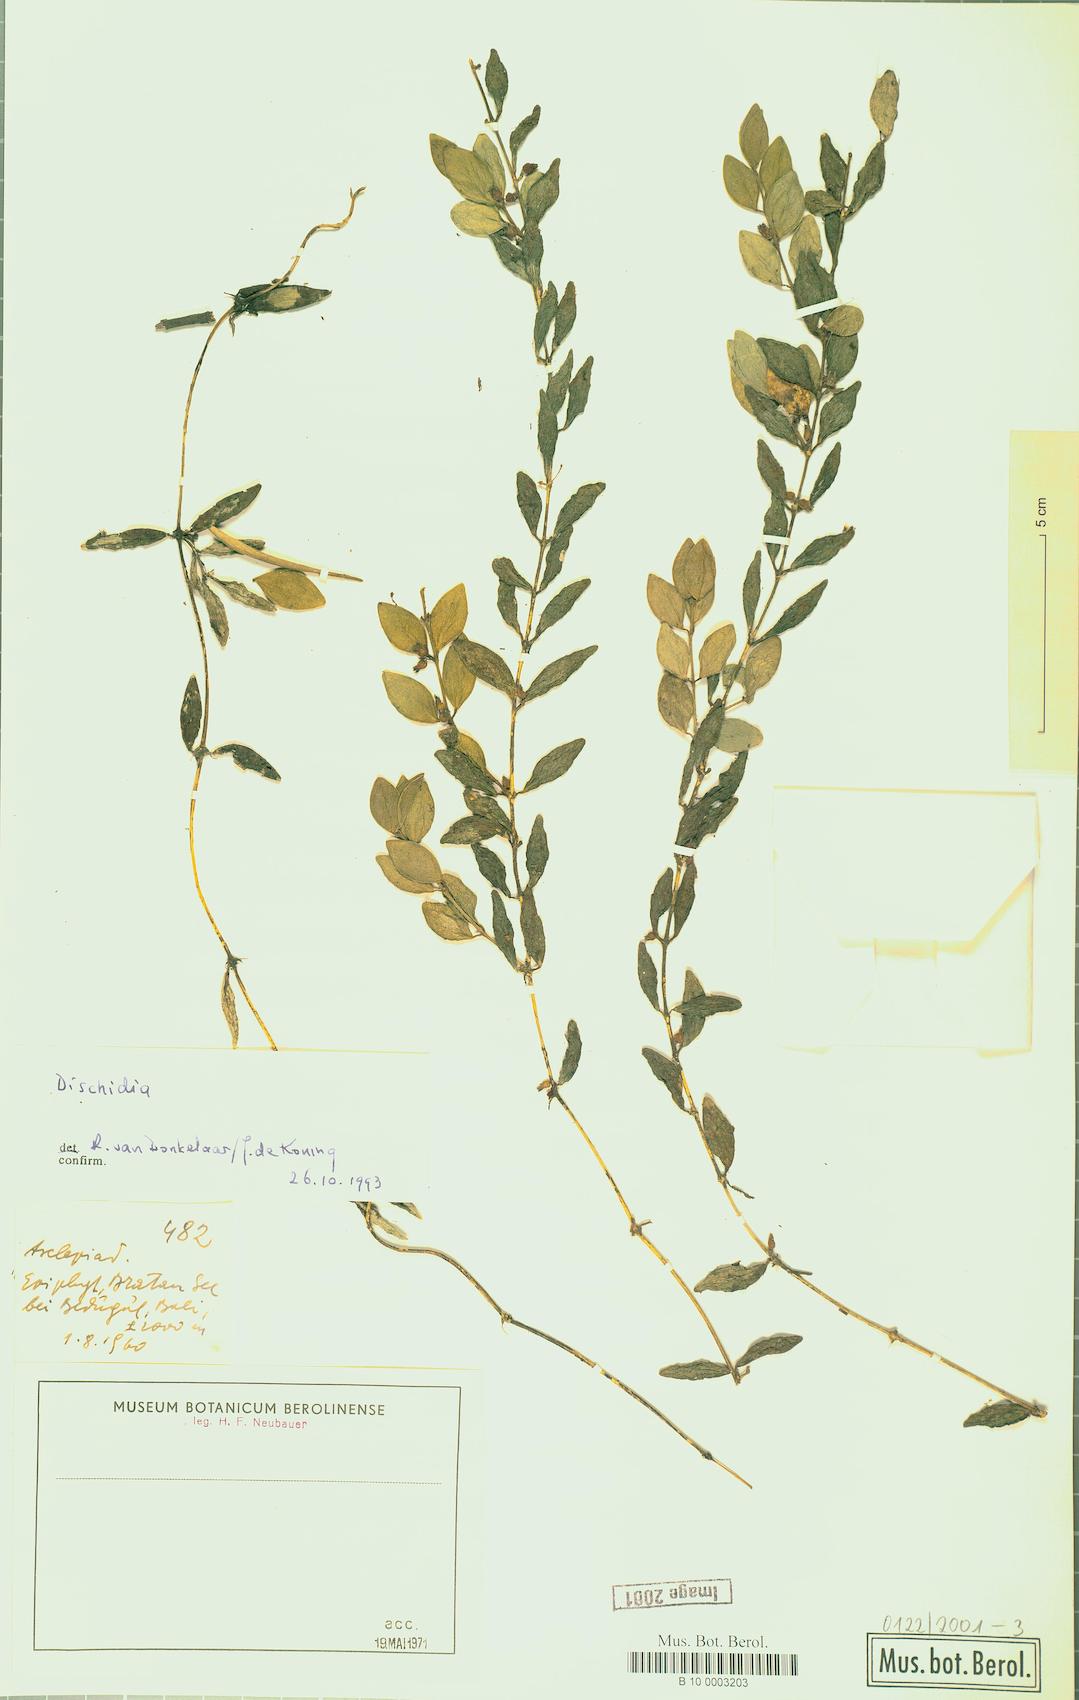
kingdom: Plantae
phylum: Tracheophyta
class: Magnoliopsida
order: Gentianales
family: Apocynaceae
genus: Dischidia
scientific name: Dischidia
